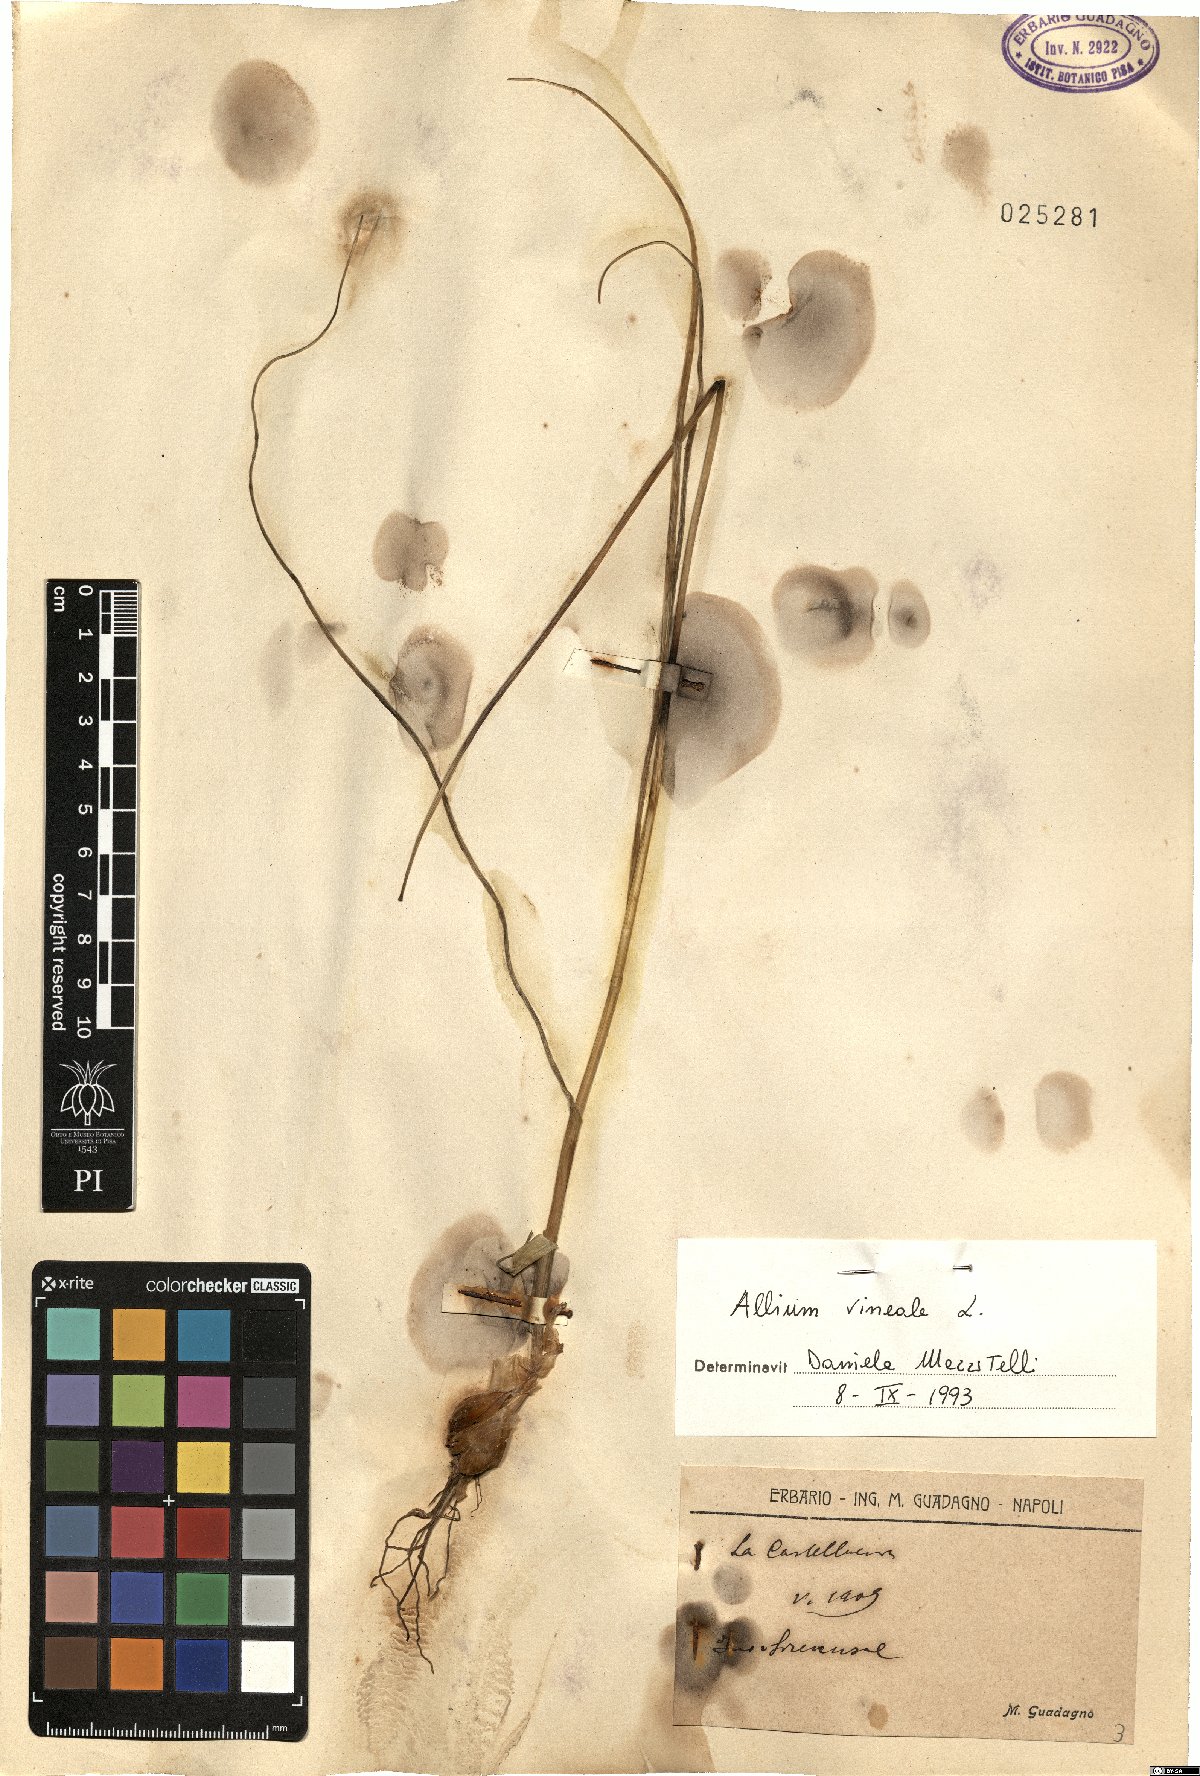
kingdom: Plantae
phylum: Tracheophyta
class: Liliopsida
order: Asparagales
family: Amaryllidaceae
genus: Allium
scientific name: Allium vineale
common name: Crow garlic
